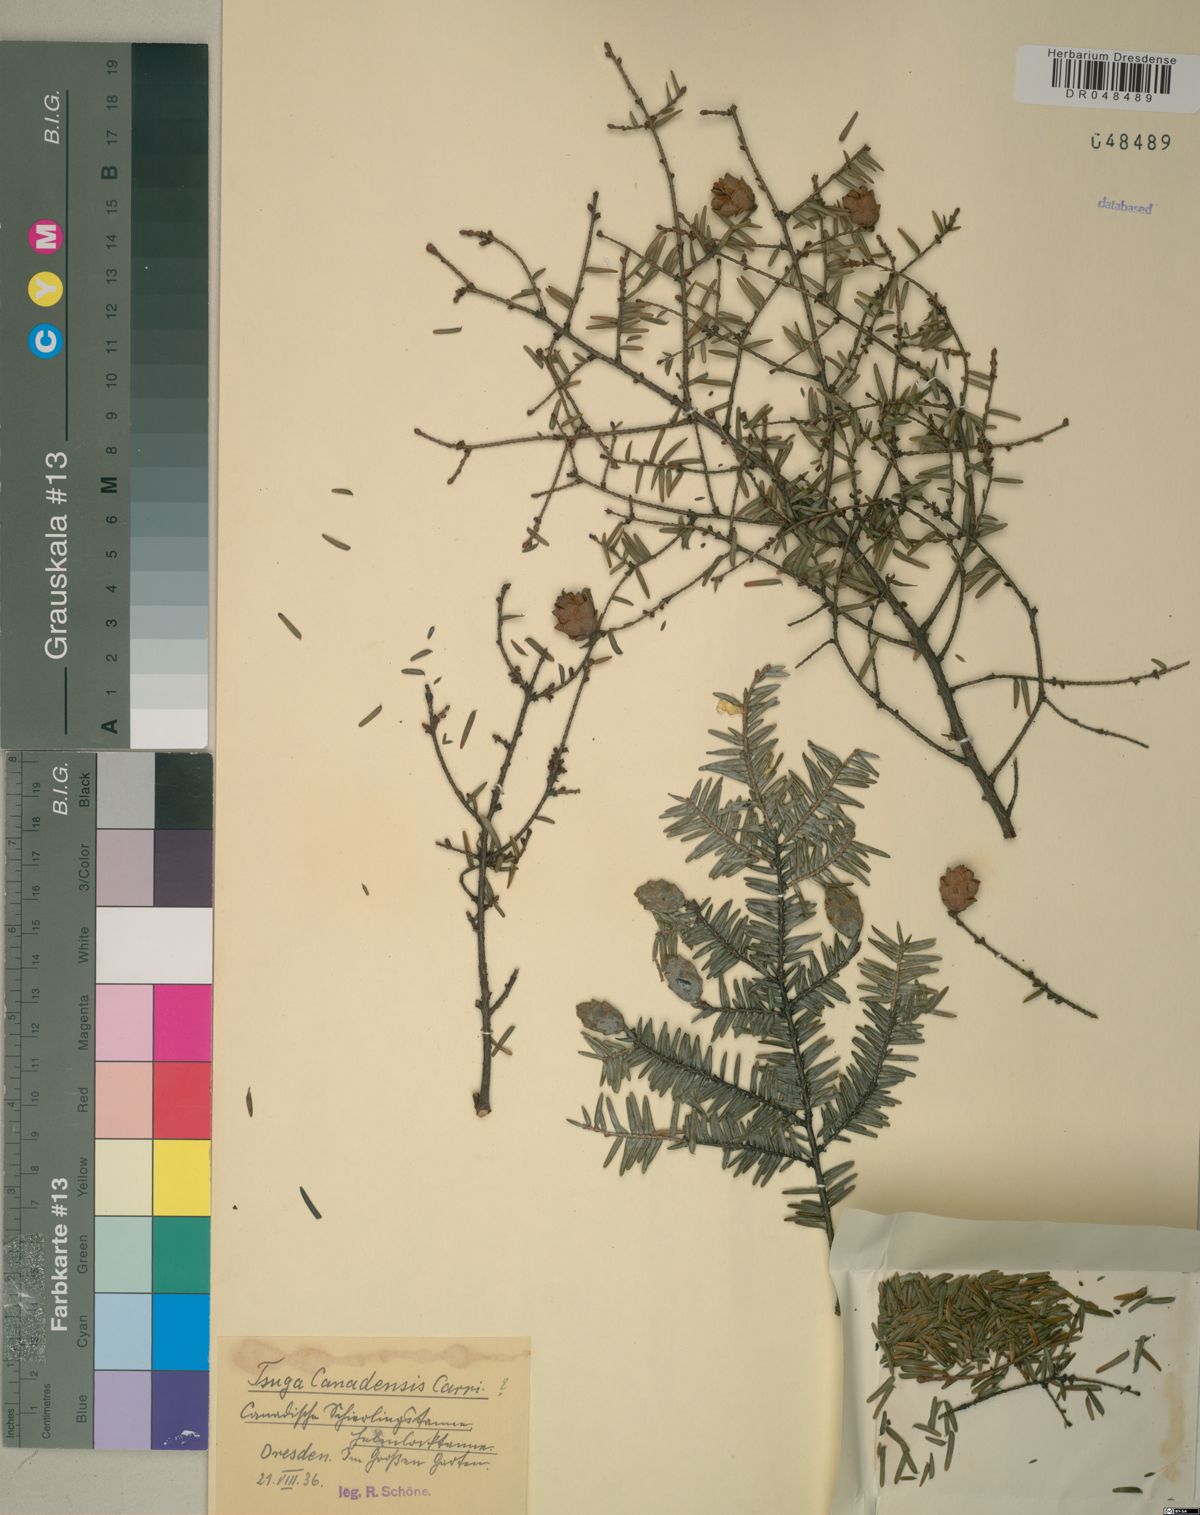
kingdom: Plantae
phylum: Tracheophyta
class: Pinopsida
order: Pinales
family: Pinaceae
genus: Tsuga
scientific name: Tsuga canadensis
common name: Eastern hemlock
